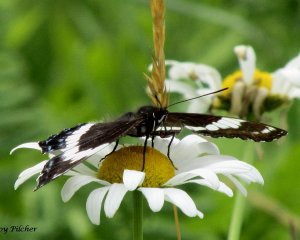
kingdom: Animalia
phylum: Arthropoda
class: Insecta
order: Lepidoptera
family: Nymphalidae
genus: Limenitis
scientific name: Limenitis arthemis
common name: Red-spotted Admiral
